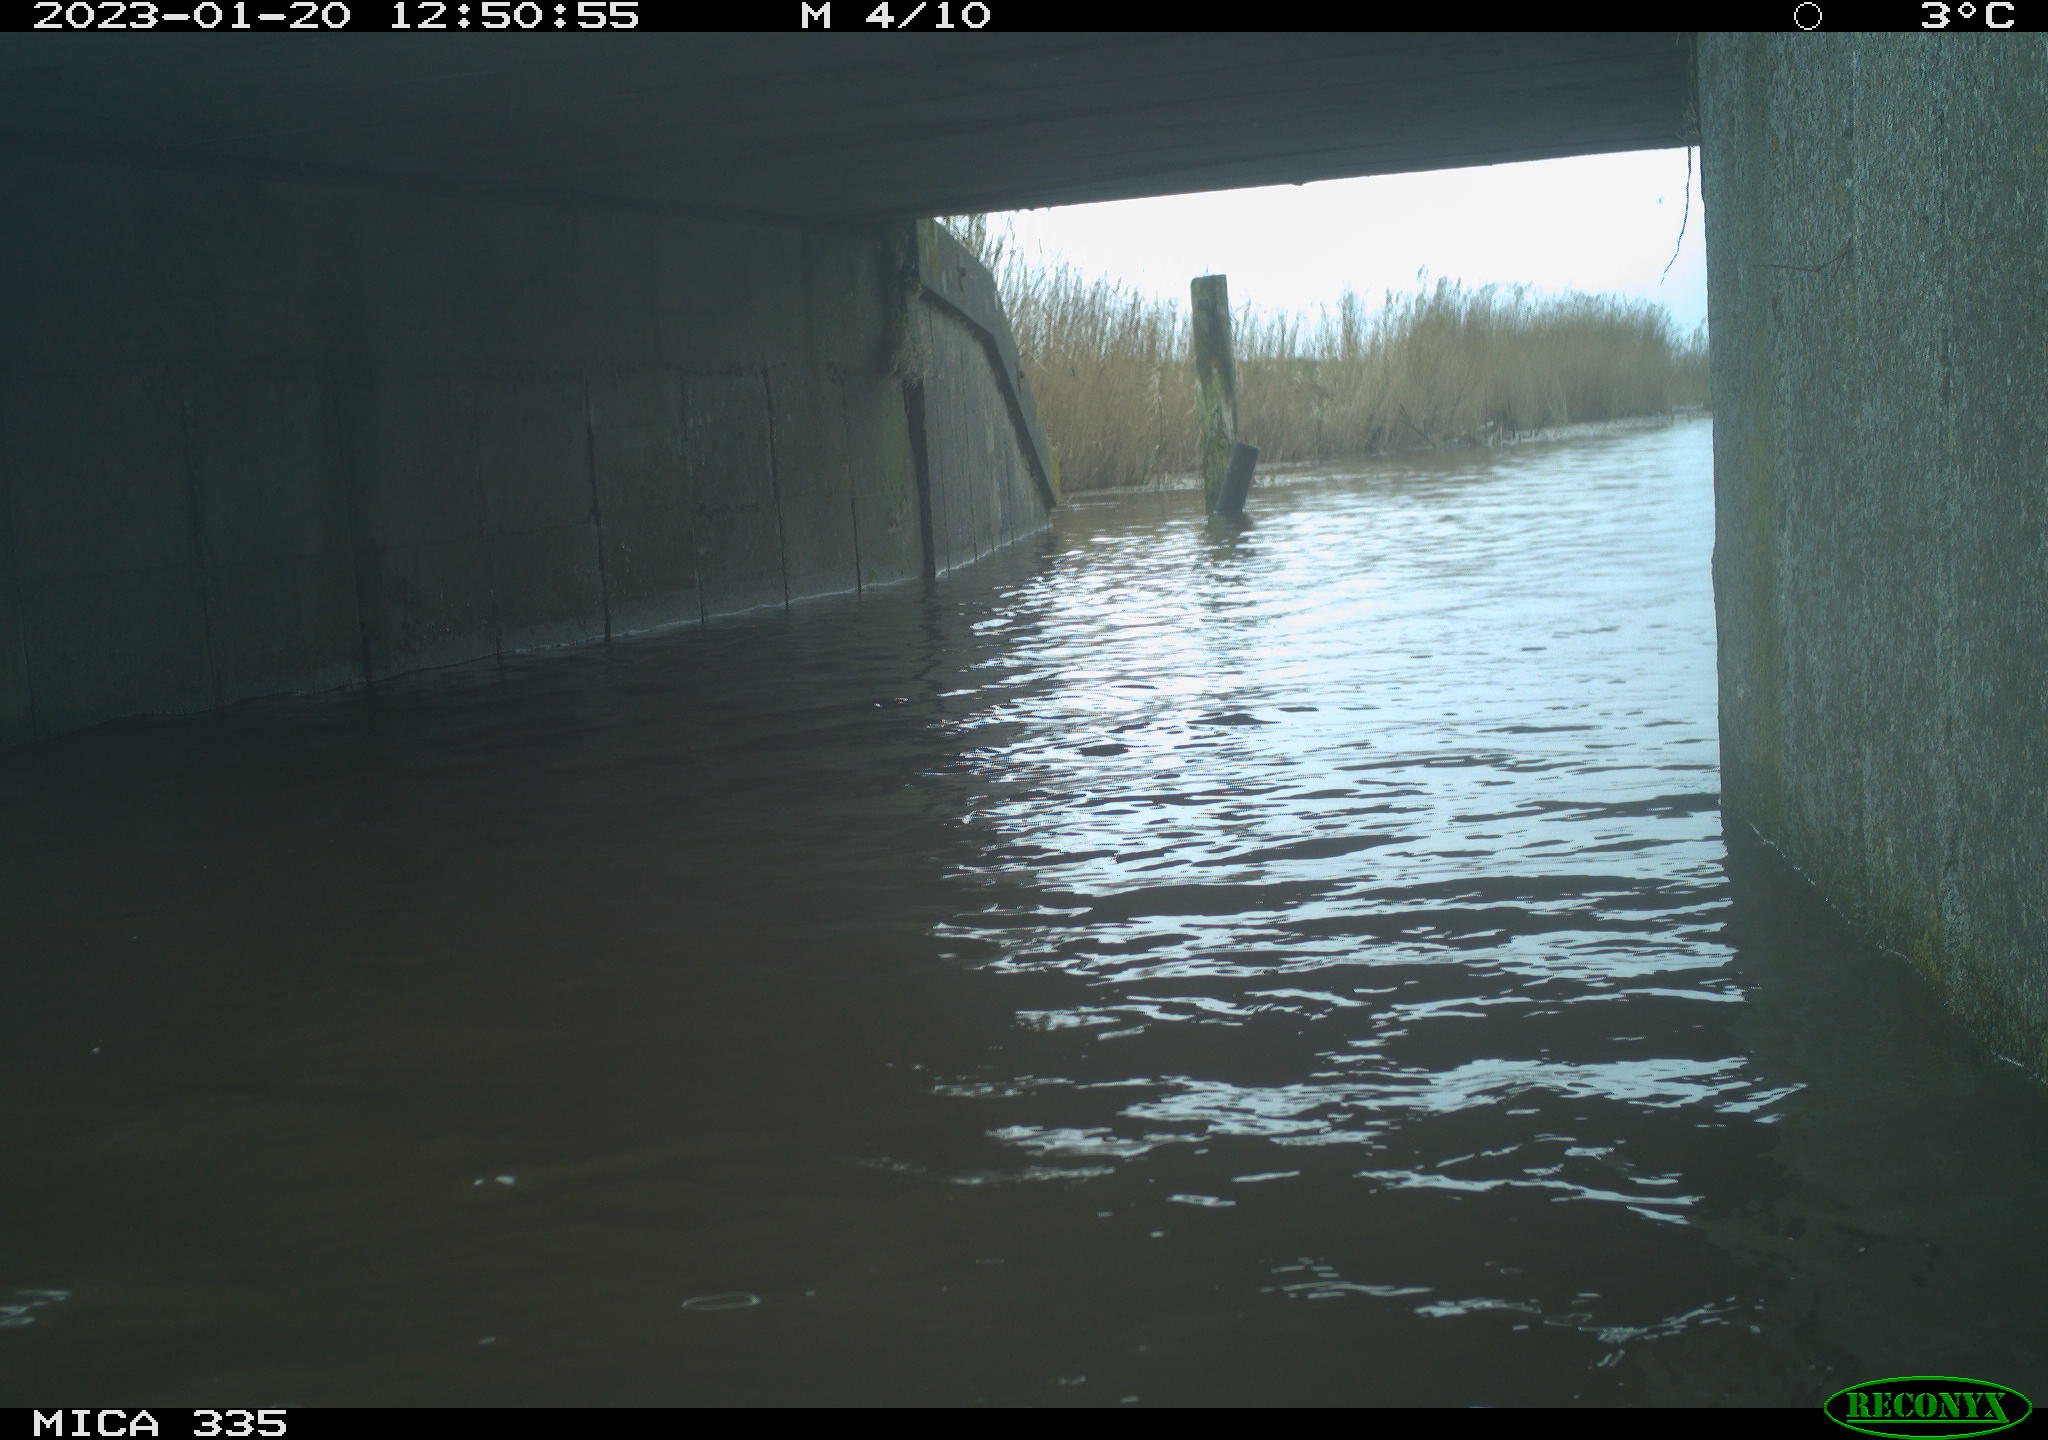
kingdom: Animalia
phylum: Chordata
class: Aves
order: Suliformes
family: Phalacrocoracidae
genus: Phalacrocorax
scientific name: Phalacrocorax carbo
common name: Great cormorant
